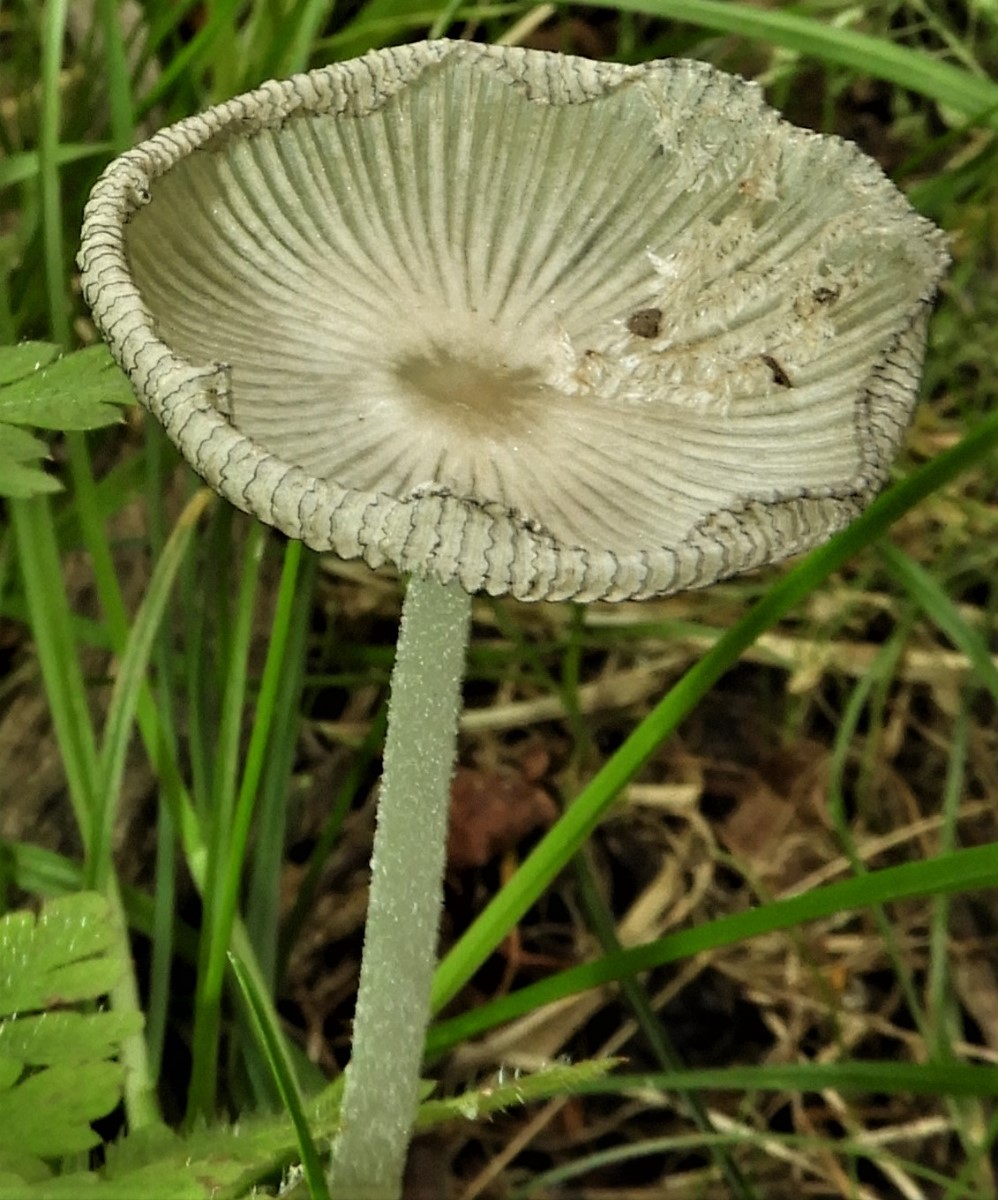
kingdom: Fungi
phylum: Basidiomycota
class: Agaricomycetes
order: Agaricales
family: Psathyrellaceae
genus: Coprinopsis
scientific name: Coprinopsis lagopus
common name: dunstokket blækhat
